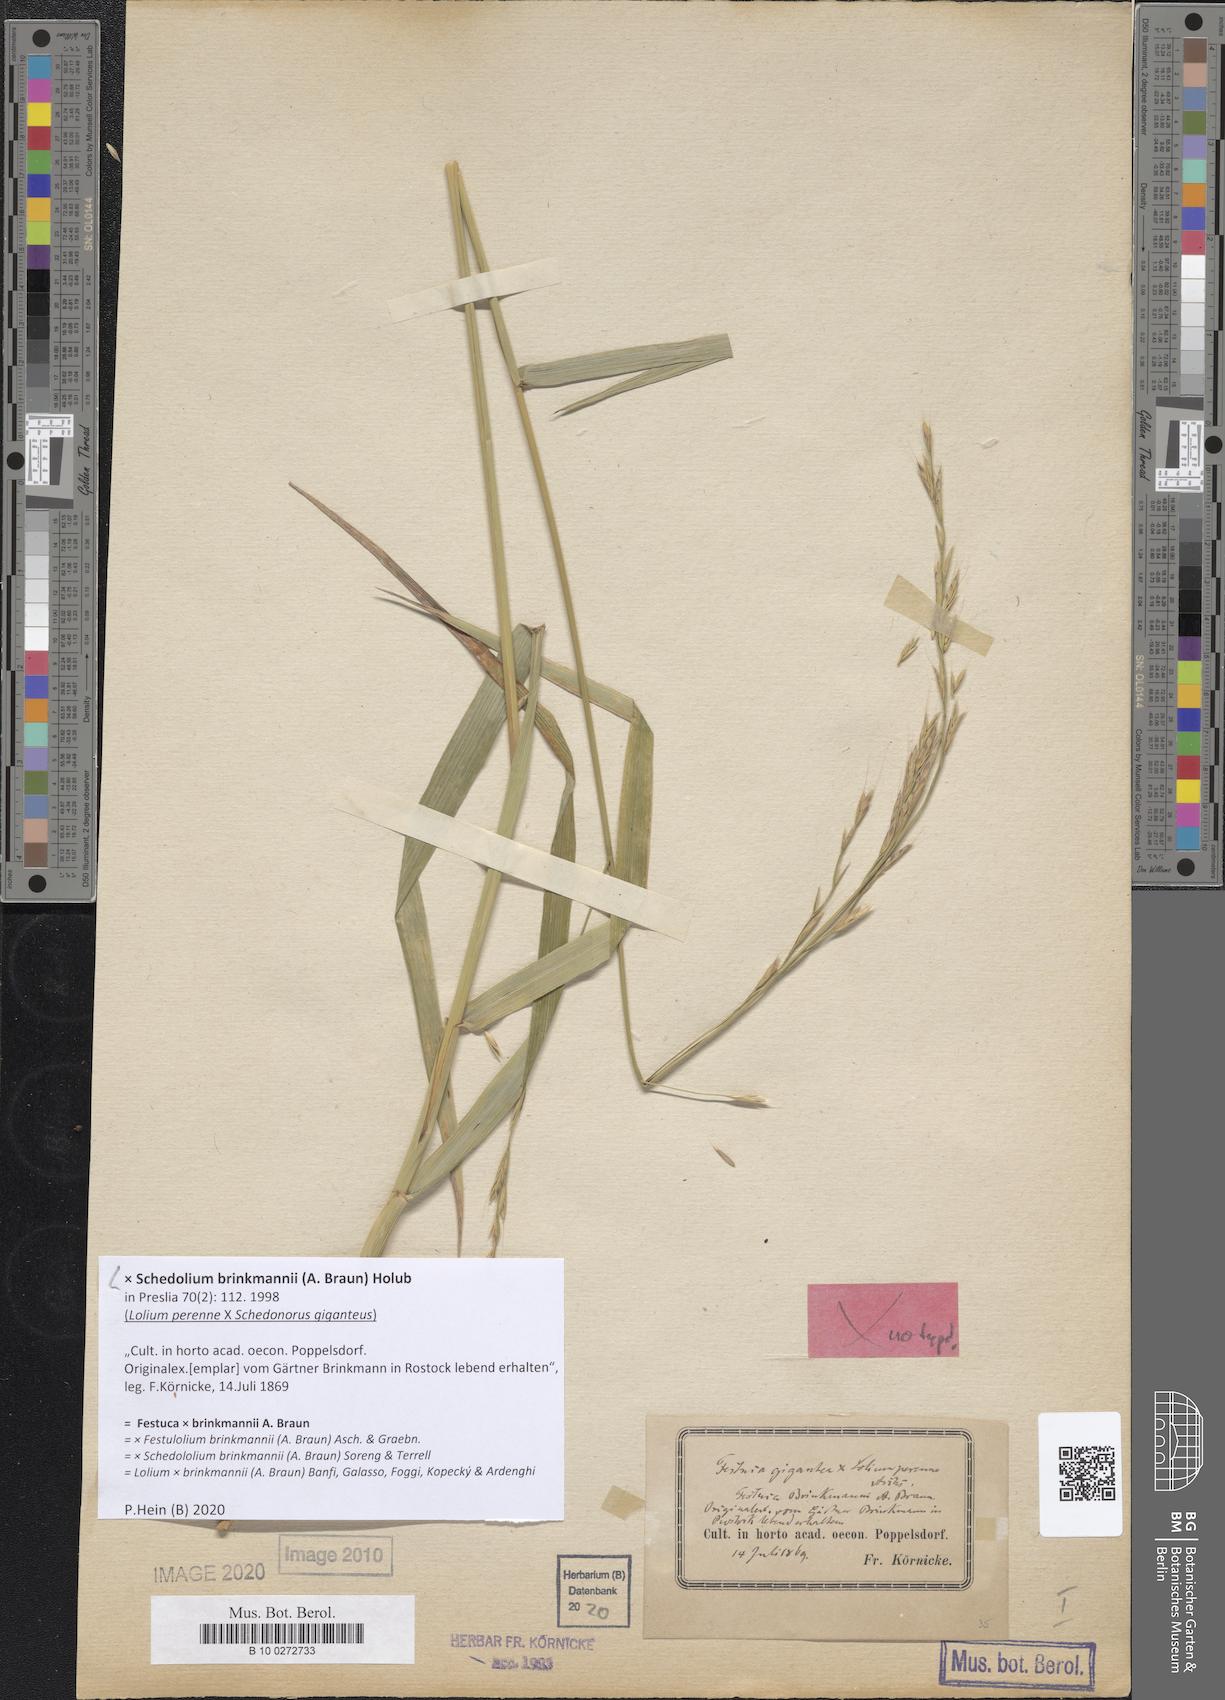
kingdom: Plantae
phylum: Tracheophyta
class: Liliopsida
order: Poales
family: Poaceae
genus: Lolium
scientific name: Lolium brinkmannii
